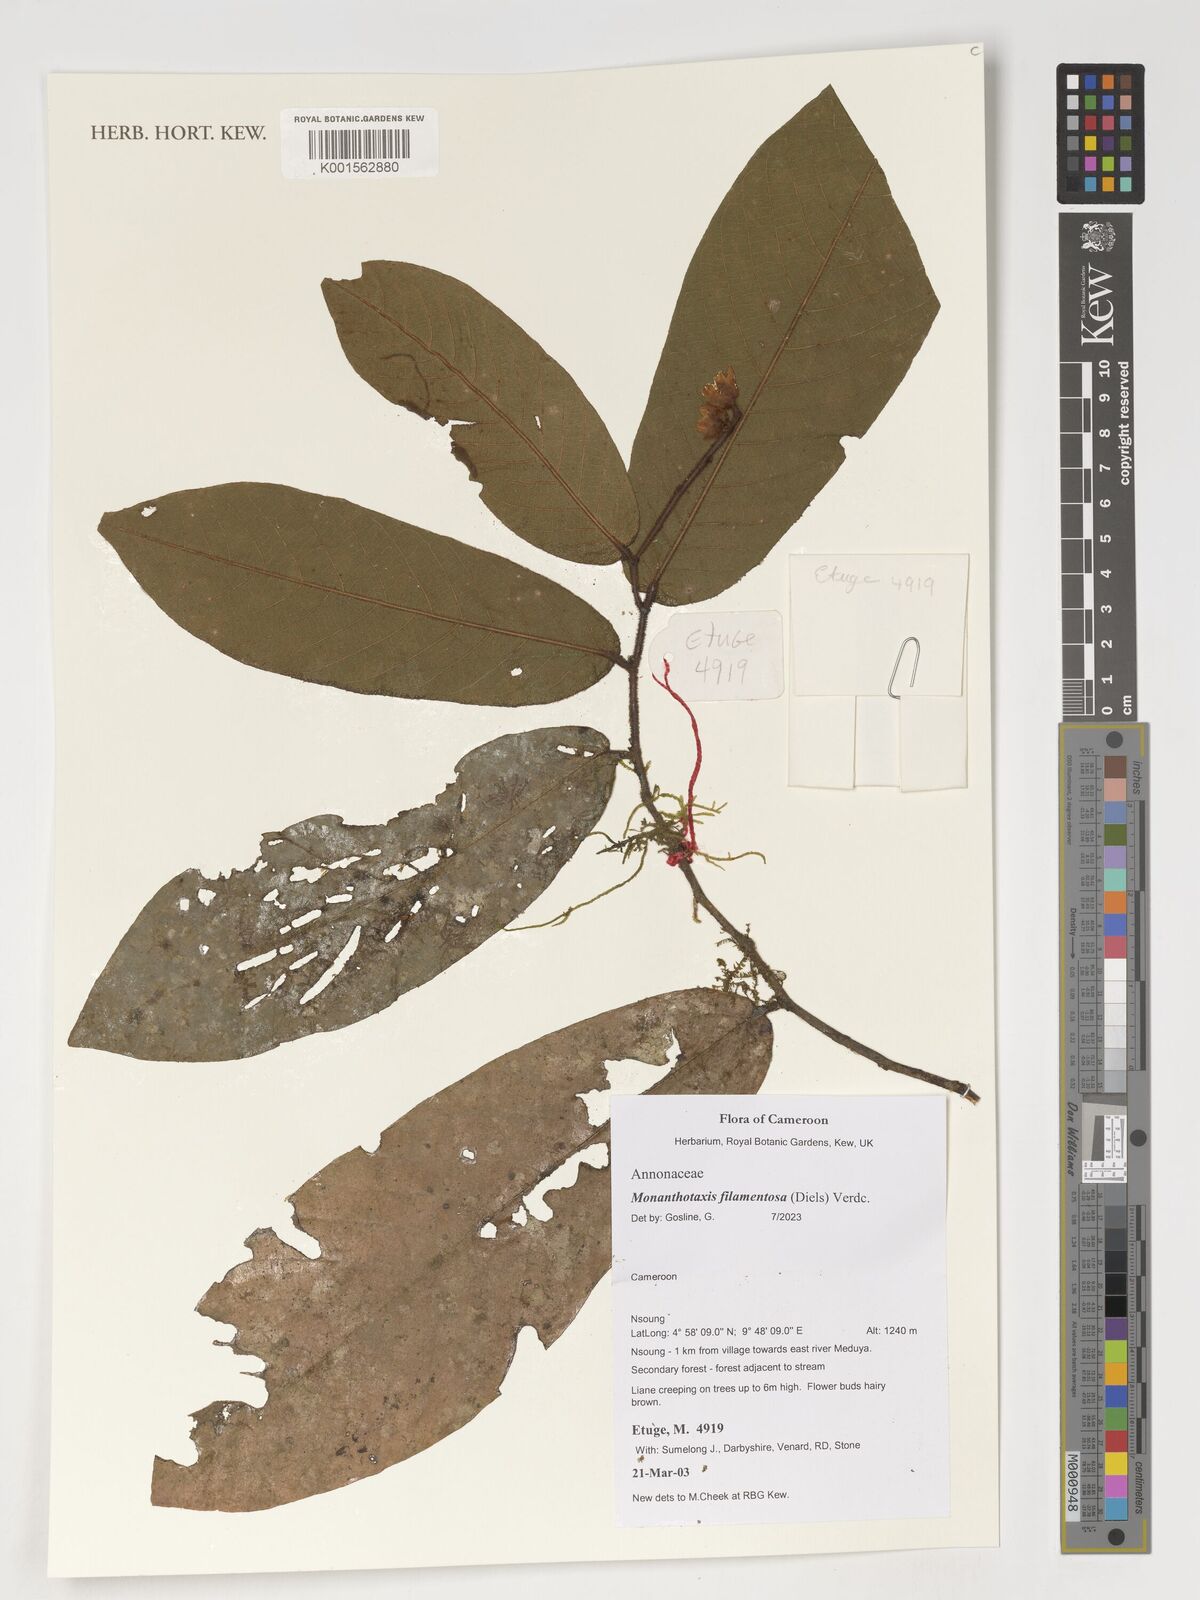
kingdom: Plantae
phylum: Tracheophyta
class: Magnoliopsida
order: Magnoliales
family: Annonaceae
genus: Monanthotaxis
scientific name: Monanthotaxis filamentosa
